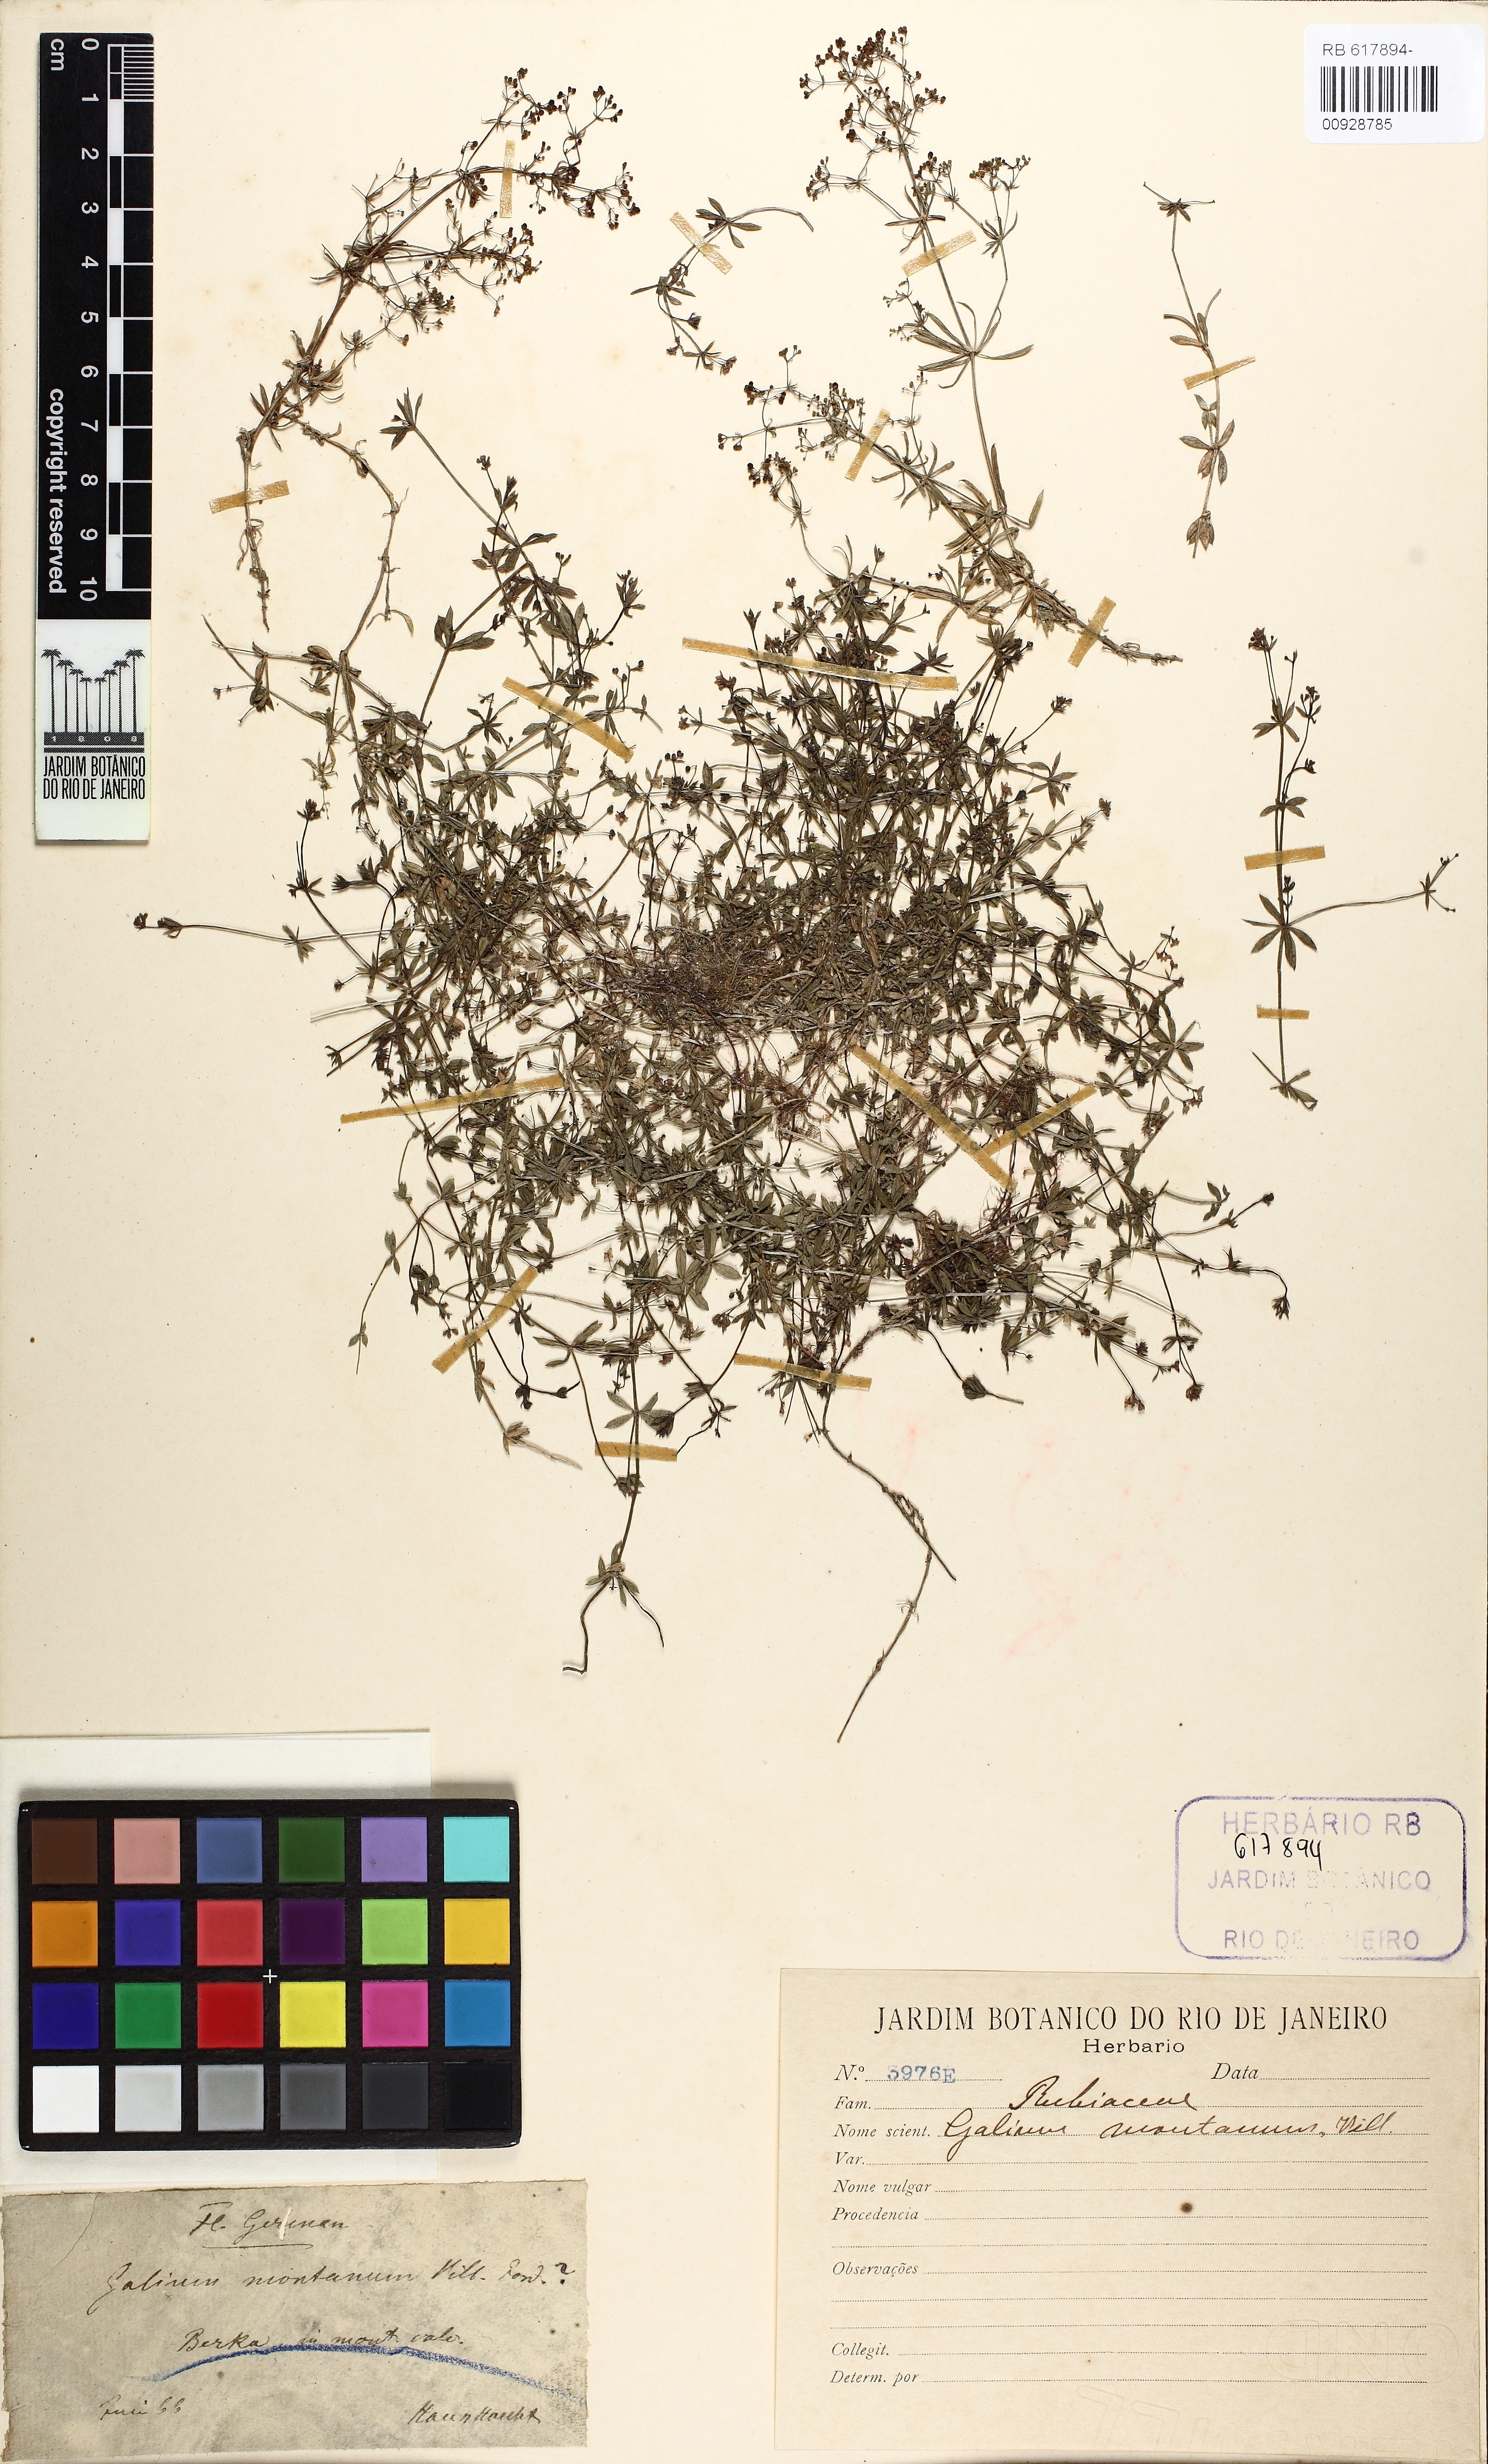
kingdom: Plantae
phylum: Tracheophyta
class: Magnoliopsida
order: Gentianales
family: Rubiaceae
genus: Galium
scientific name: Galium glaucum
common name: Waxy bedstraw
